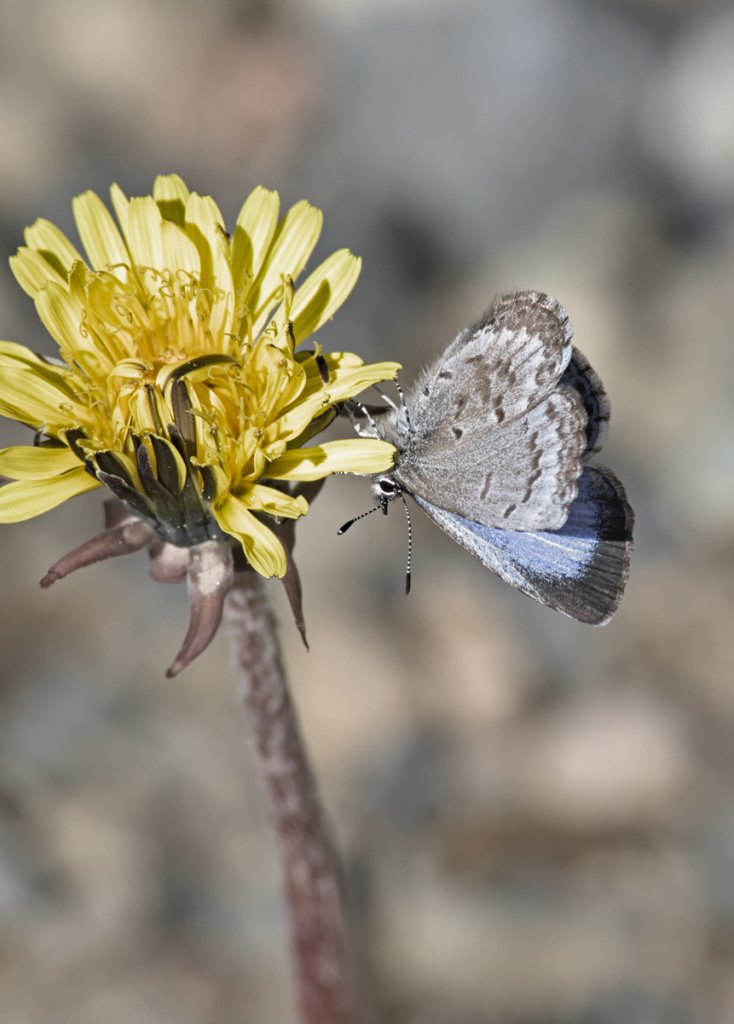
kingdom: Animalia
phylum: Arthropoda
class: Insecta
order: Lepidoptera
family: Lycaenidae
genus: Celastrina
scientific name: Celastrina lucia
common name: Northern Spring Azure
